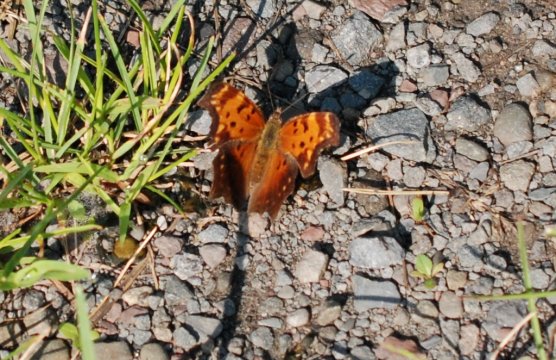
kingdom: Animalia
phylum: Arthropoda
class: Insecta
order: Lepidoptera
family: Nymphalidae
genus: Polygonia
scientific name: Polygonia progne
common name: Gray Comma
